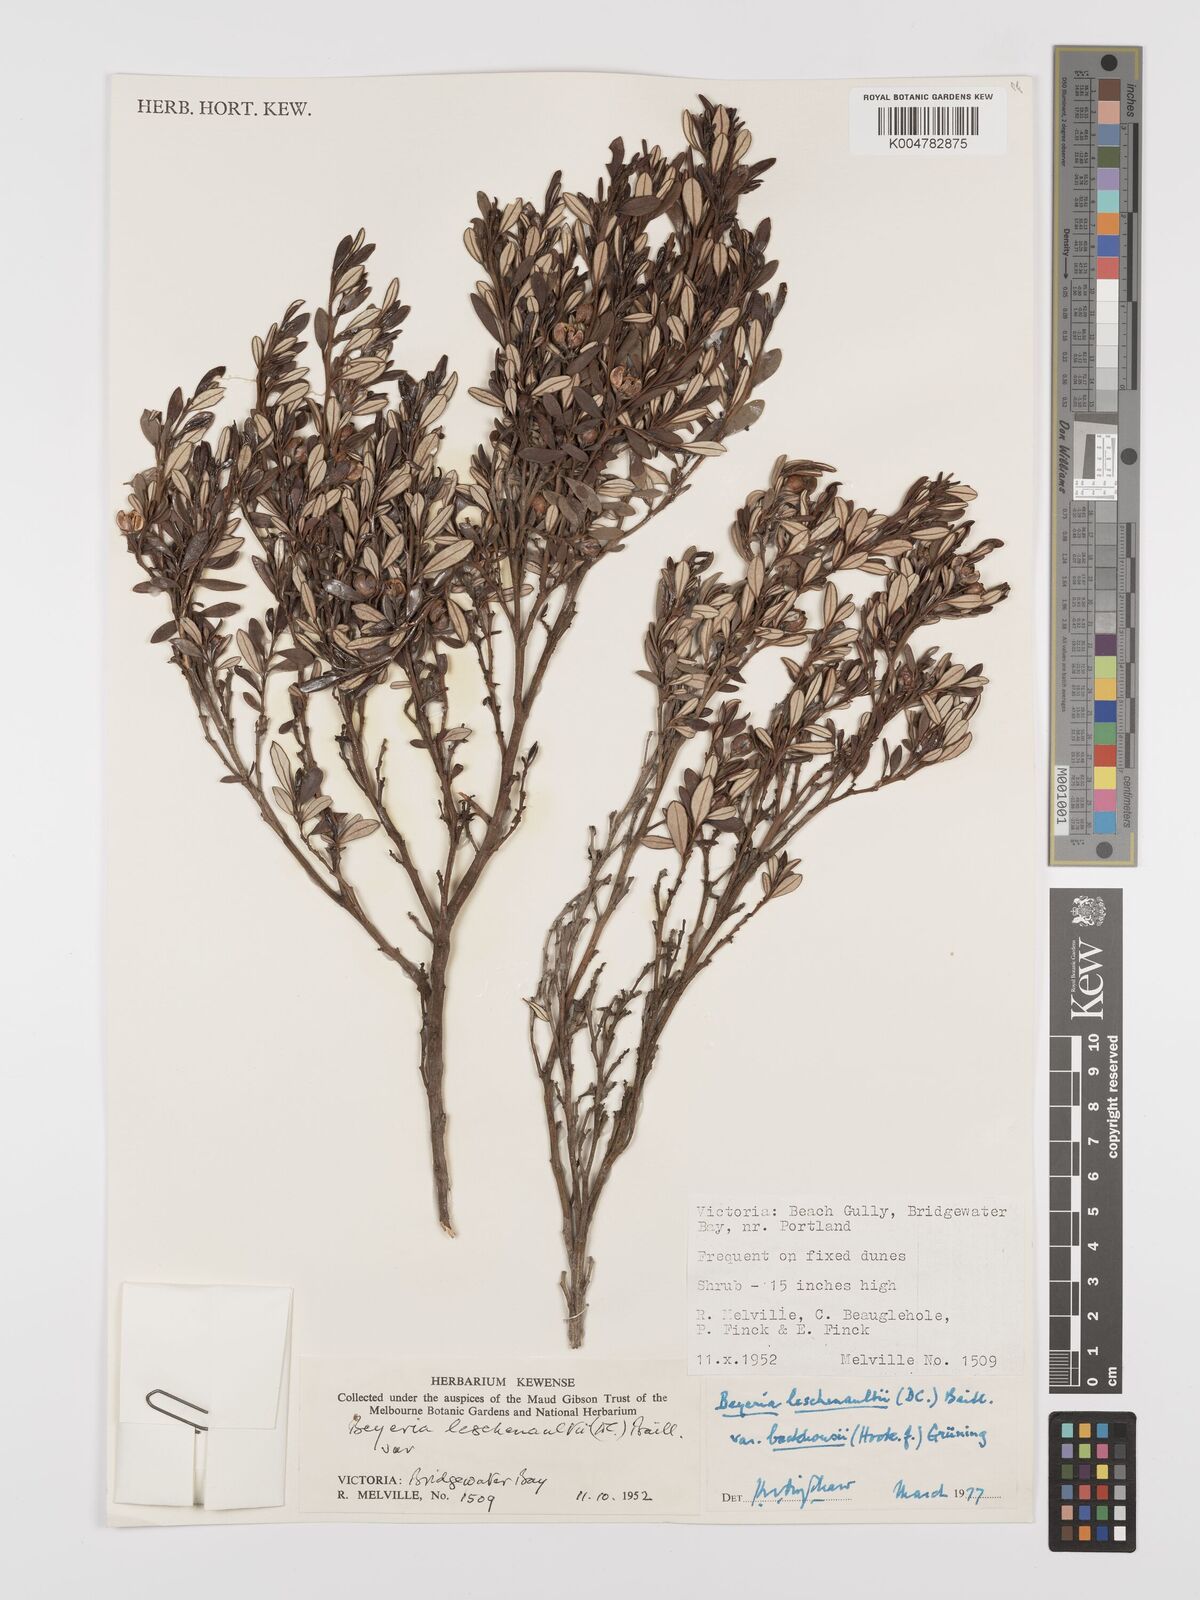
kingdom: Plantae
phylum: Tracheophyta
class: Magnoliopsida
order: Malpighiales
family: Euphorbiaceae
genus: Beyeria
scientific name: Beyeria lechenaultii
